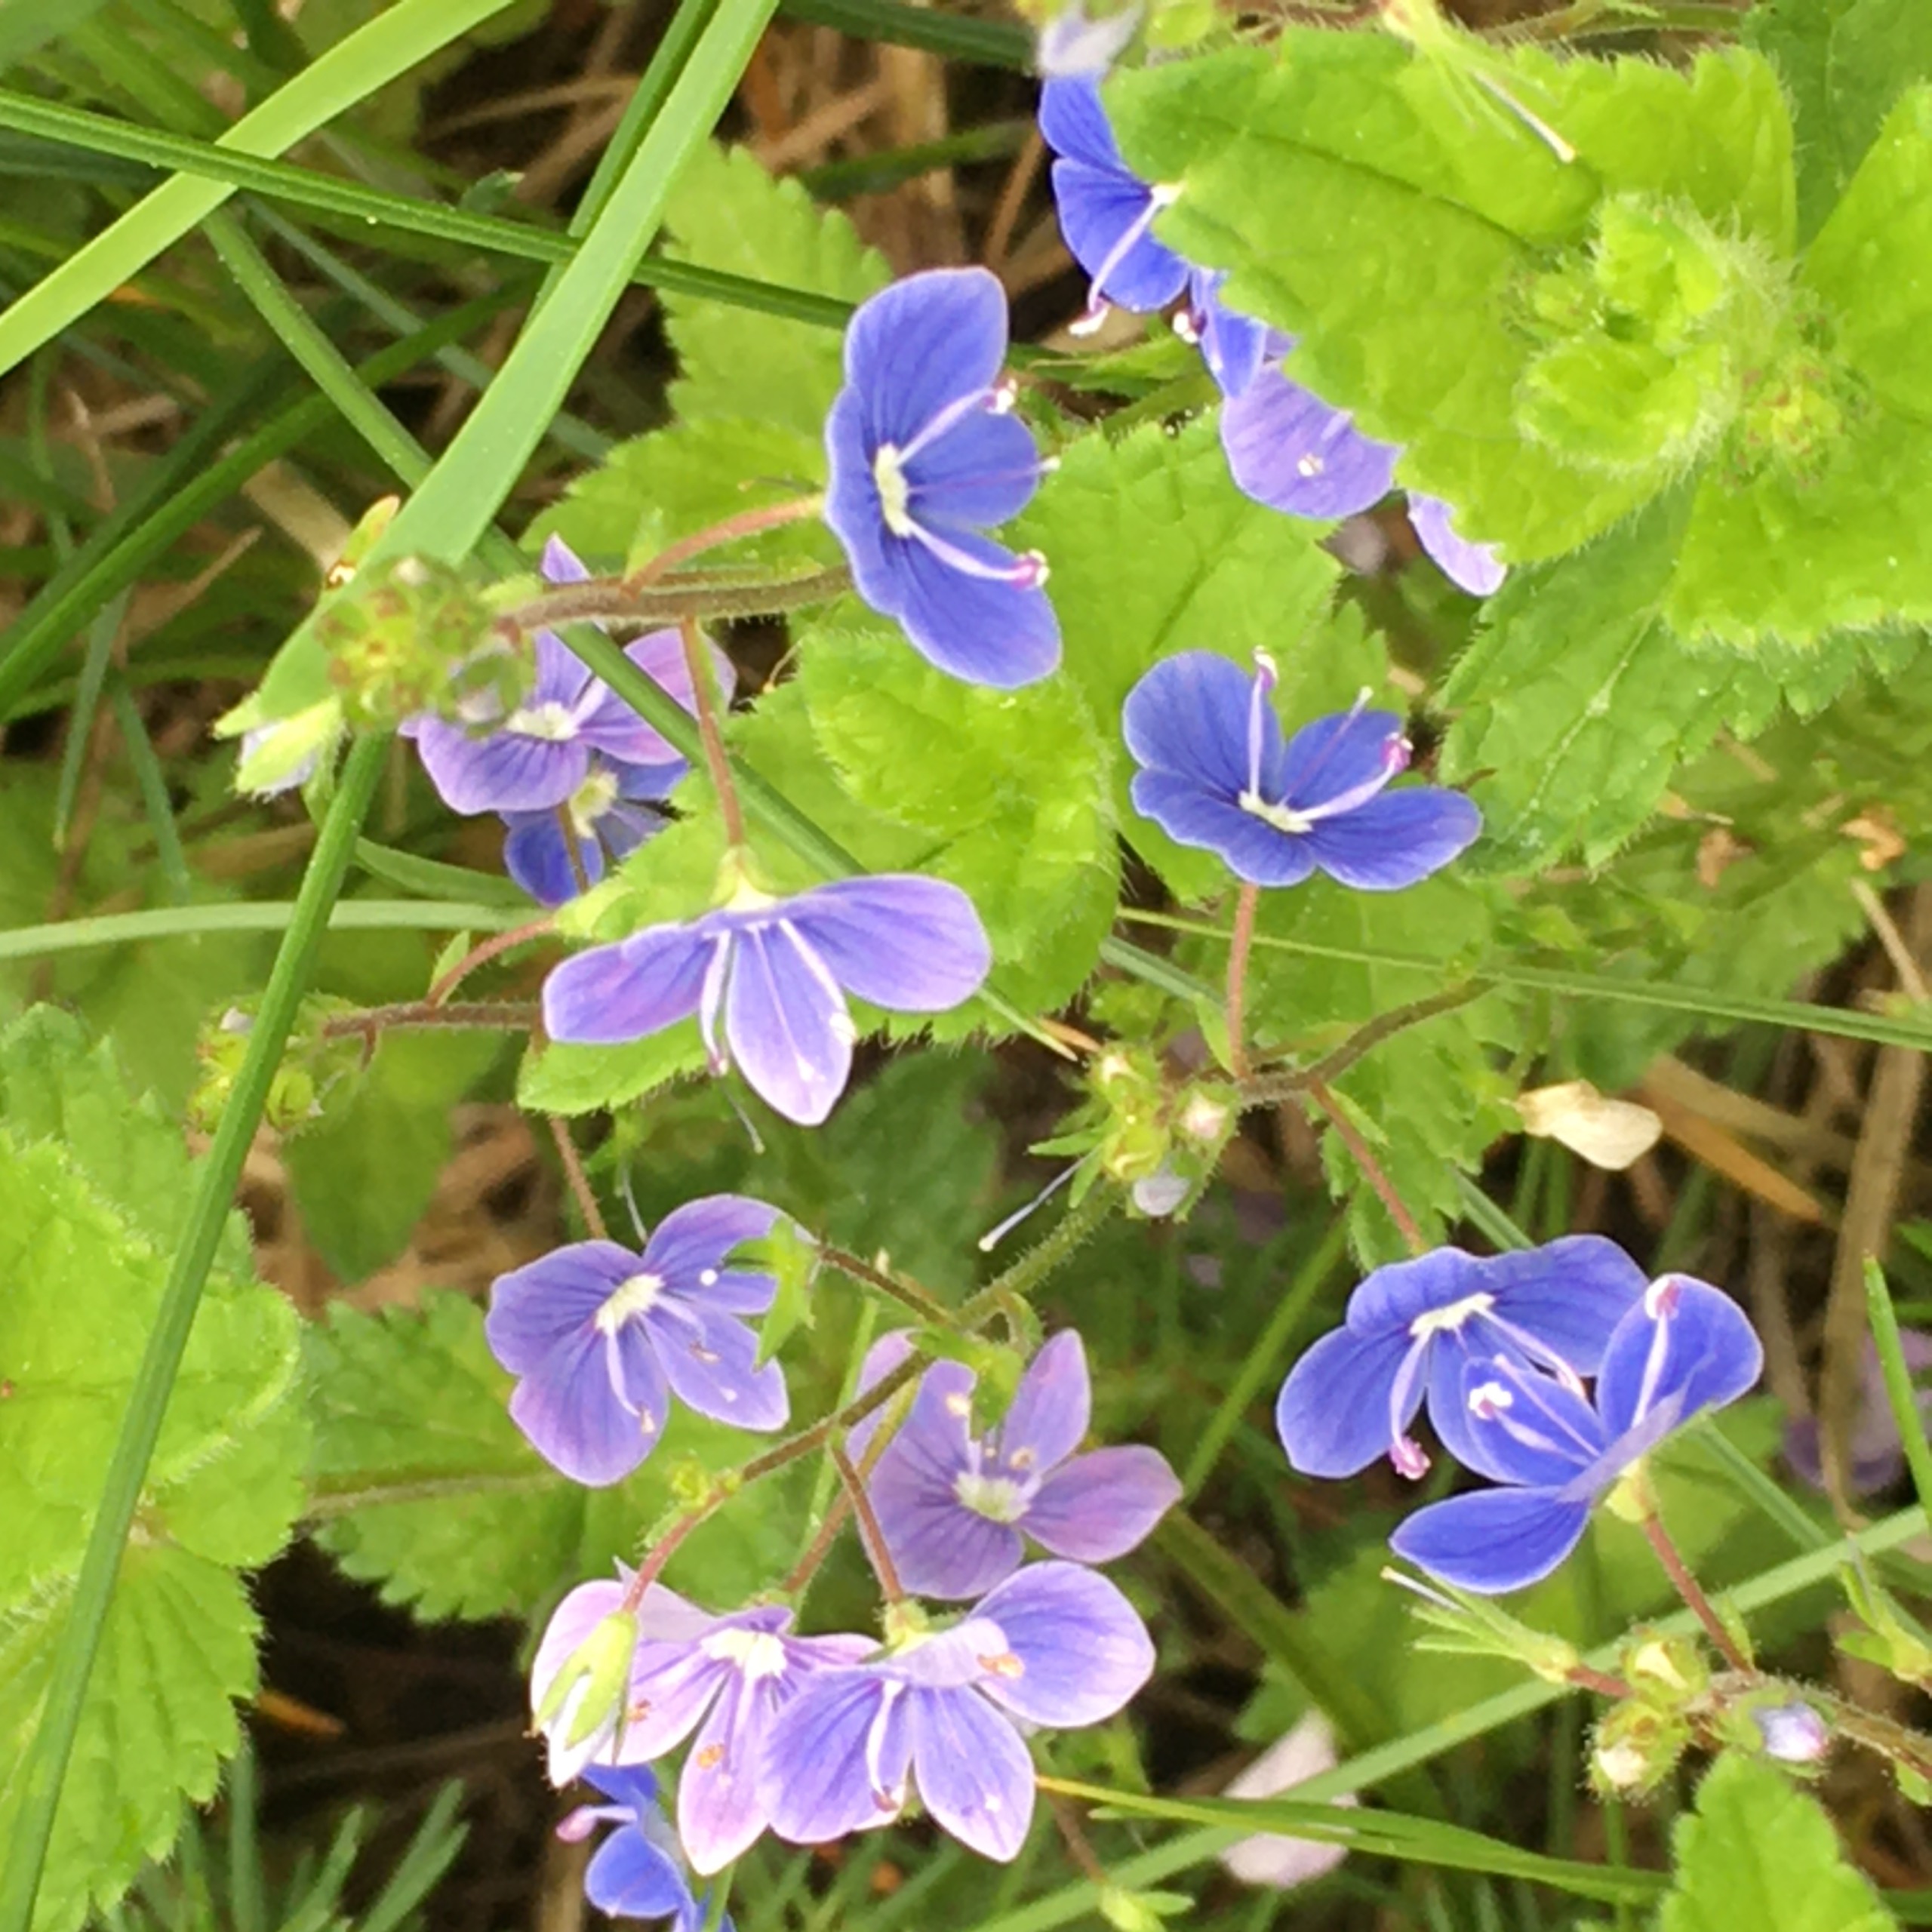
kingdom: Plantae
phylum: Tracheophyta
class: Magnoliopsida
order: Lamiales
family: Plantaginaceae
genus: Veronica
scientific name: Veronica chamaedrys
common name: Tveskægget ærenpris
